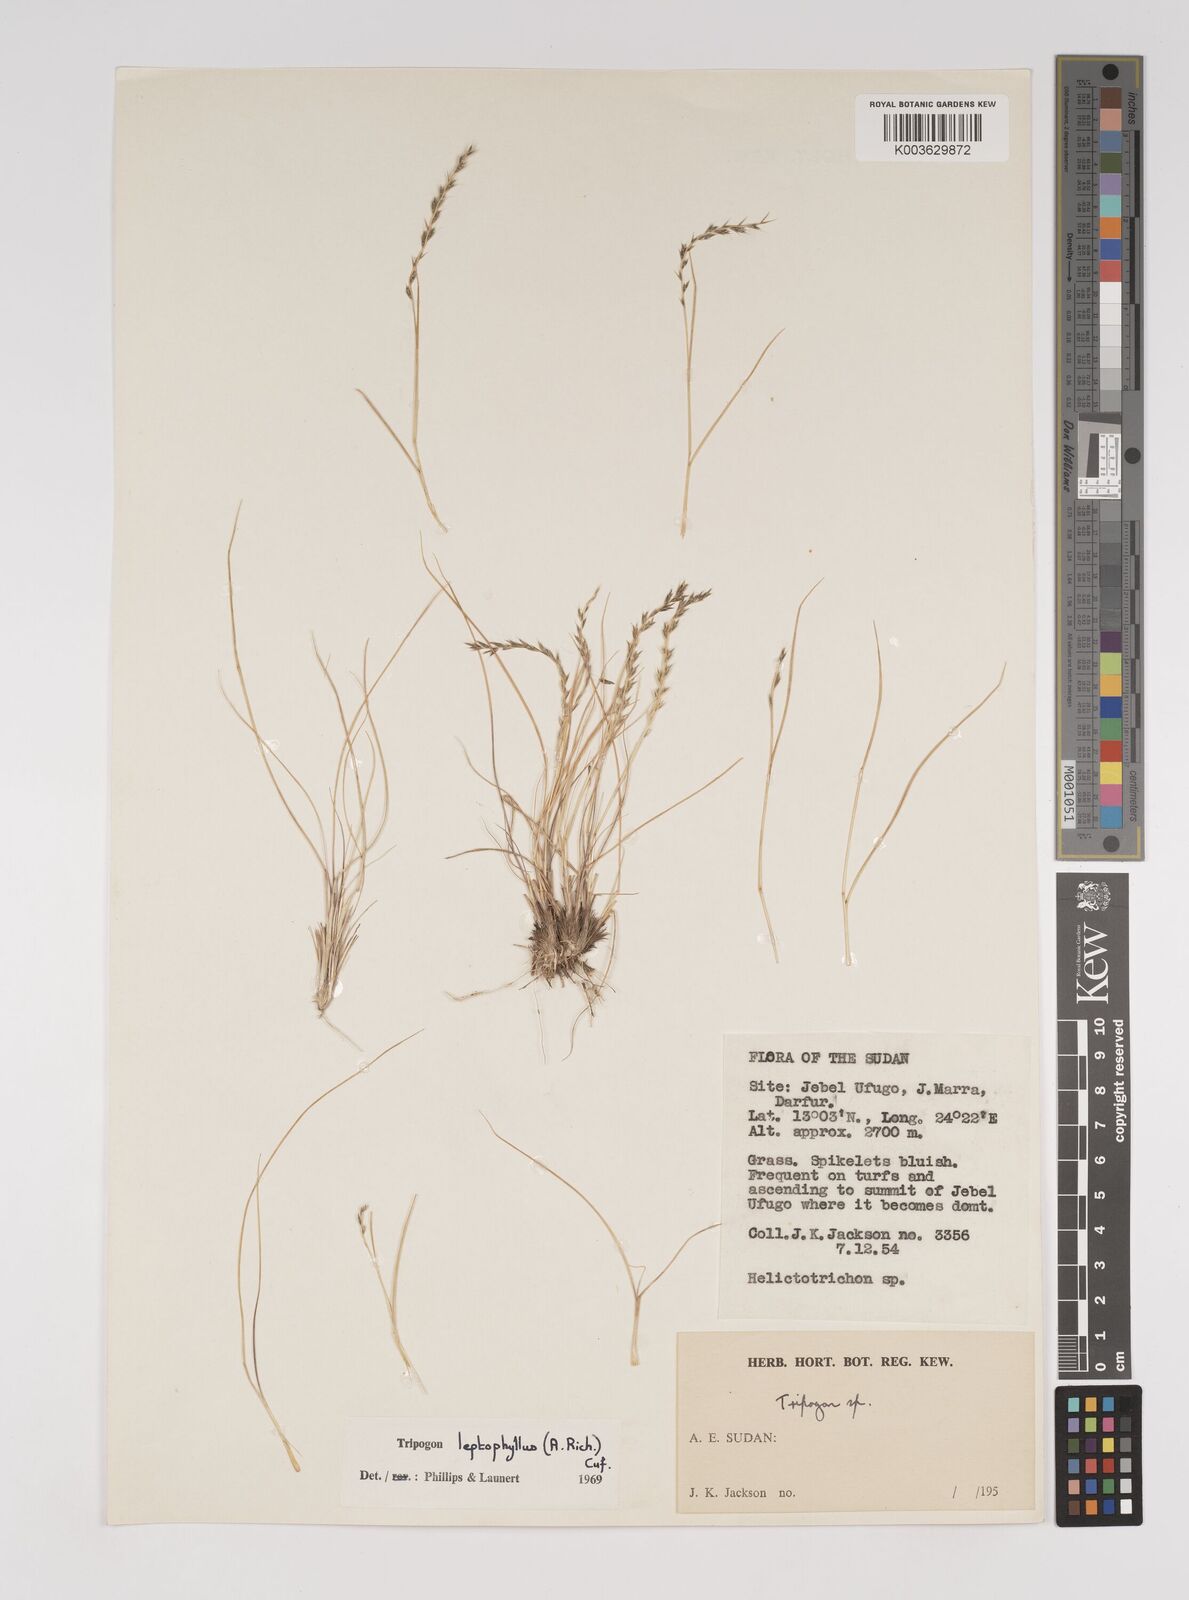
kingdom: Plantae
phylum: Tracheophyta
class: Liliopsida
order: Poales
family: Poaceae
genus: Tripogon
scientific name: Tripogon leptophyllus
